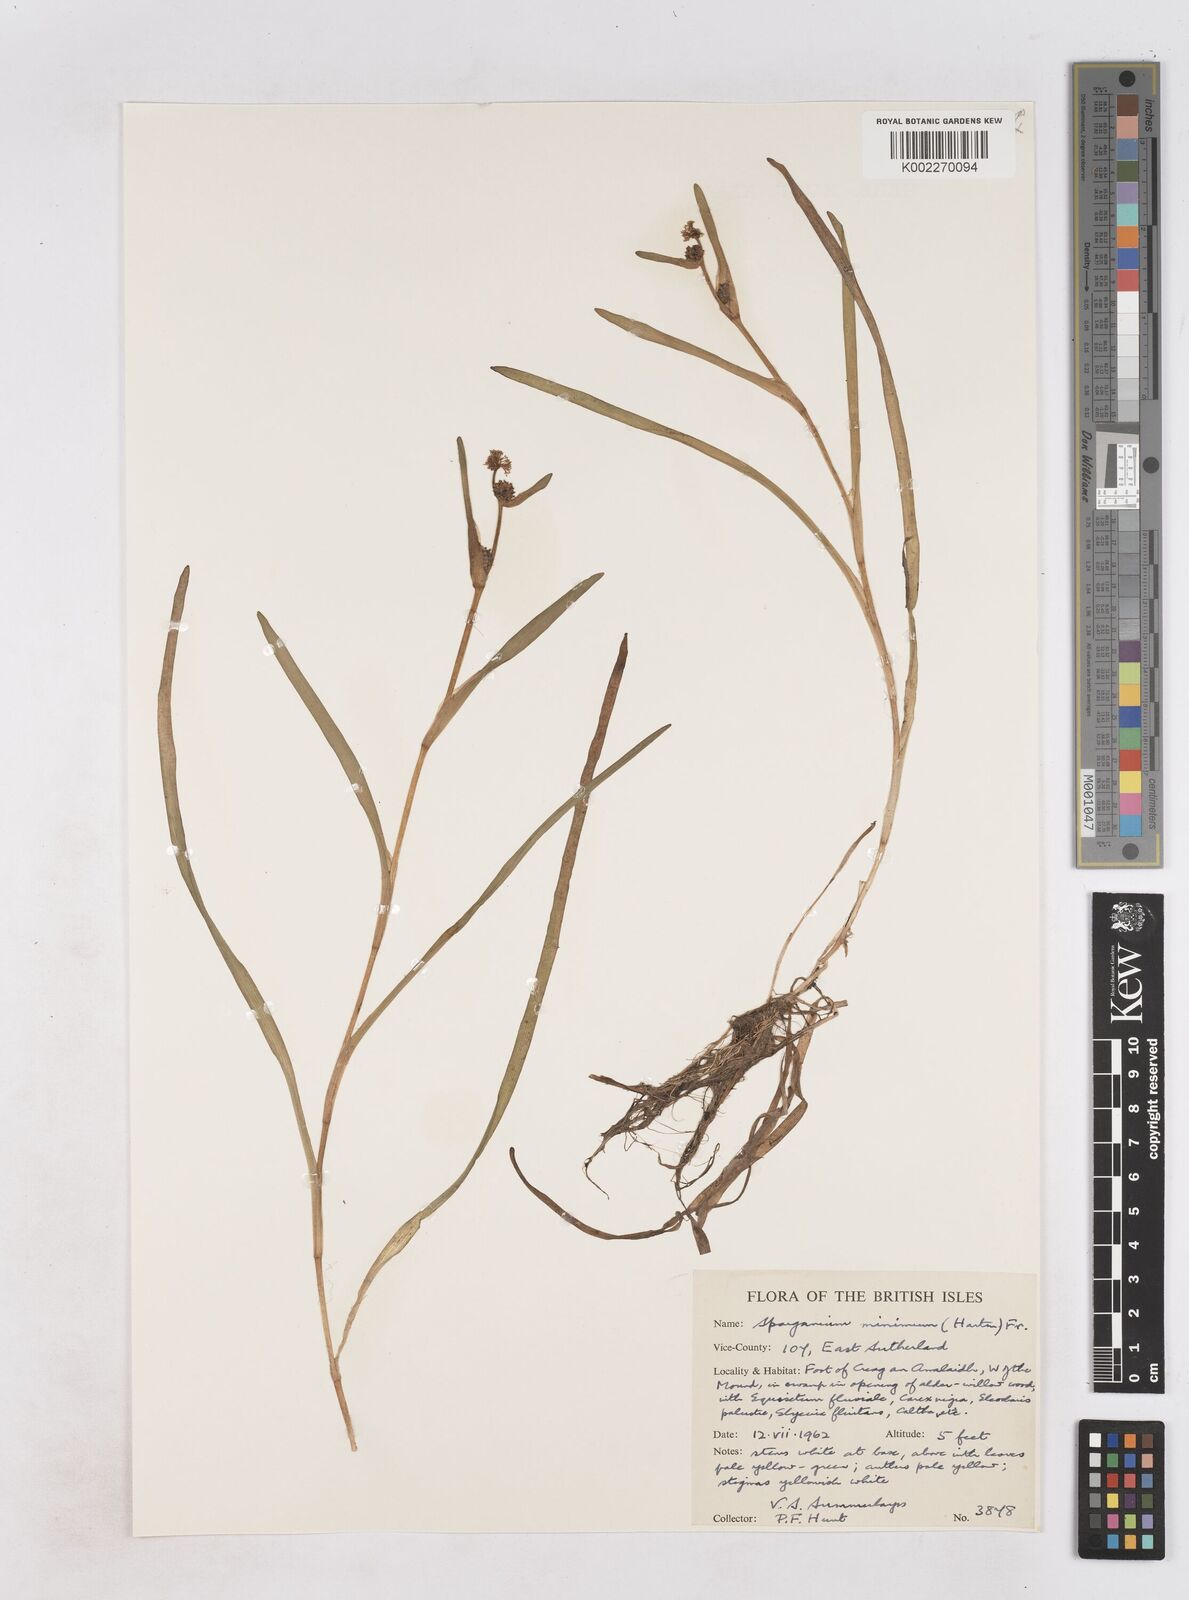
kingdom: Plantae
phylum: Tracheophyta
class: Liliopsida
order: Poales
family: Typhaceae
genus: Sparganium
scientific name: Sparganium natans
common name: Least bur-reed
